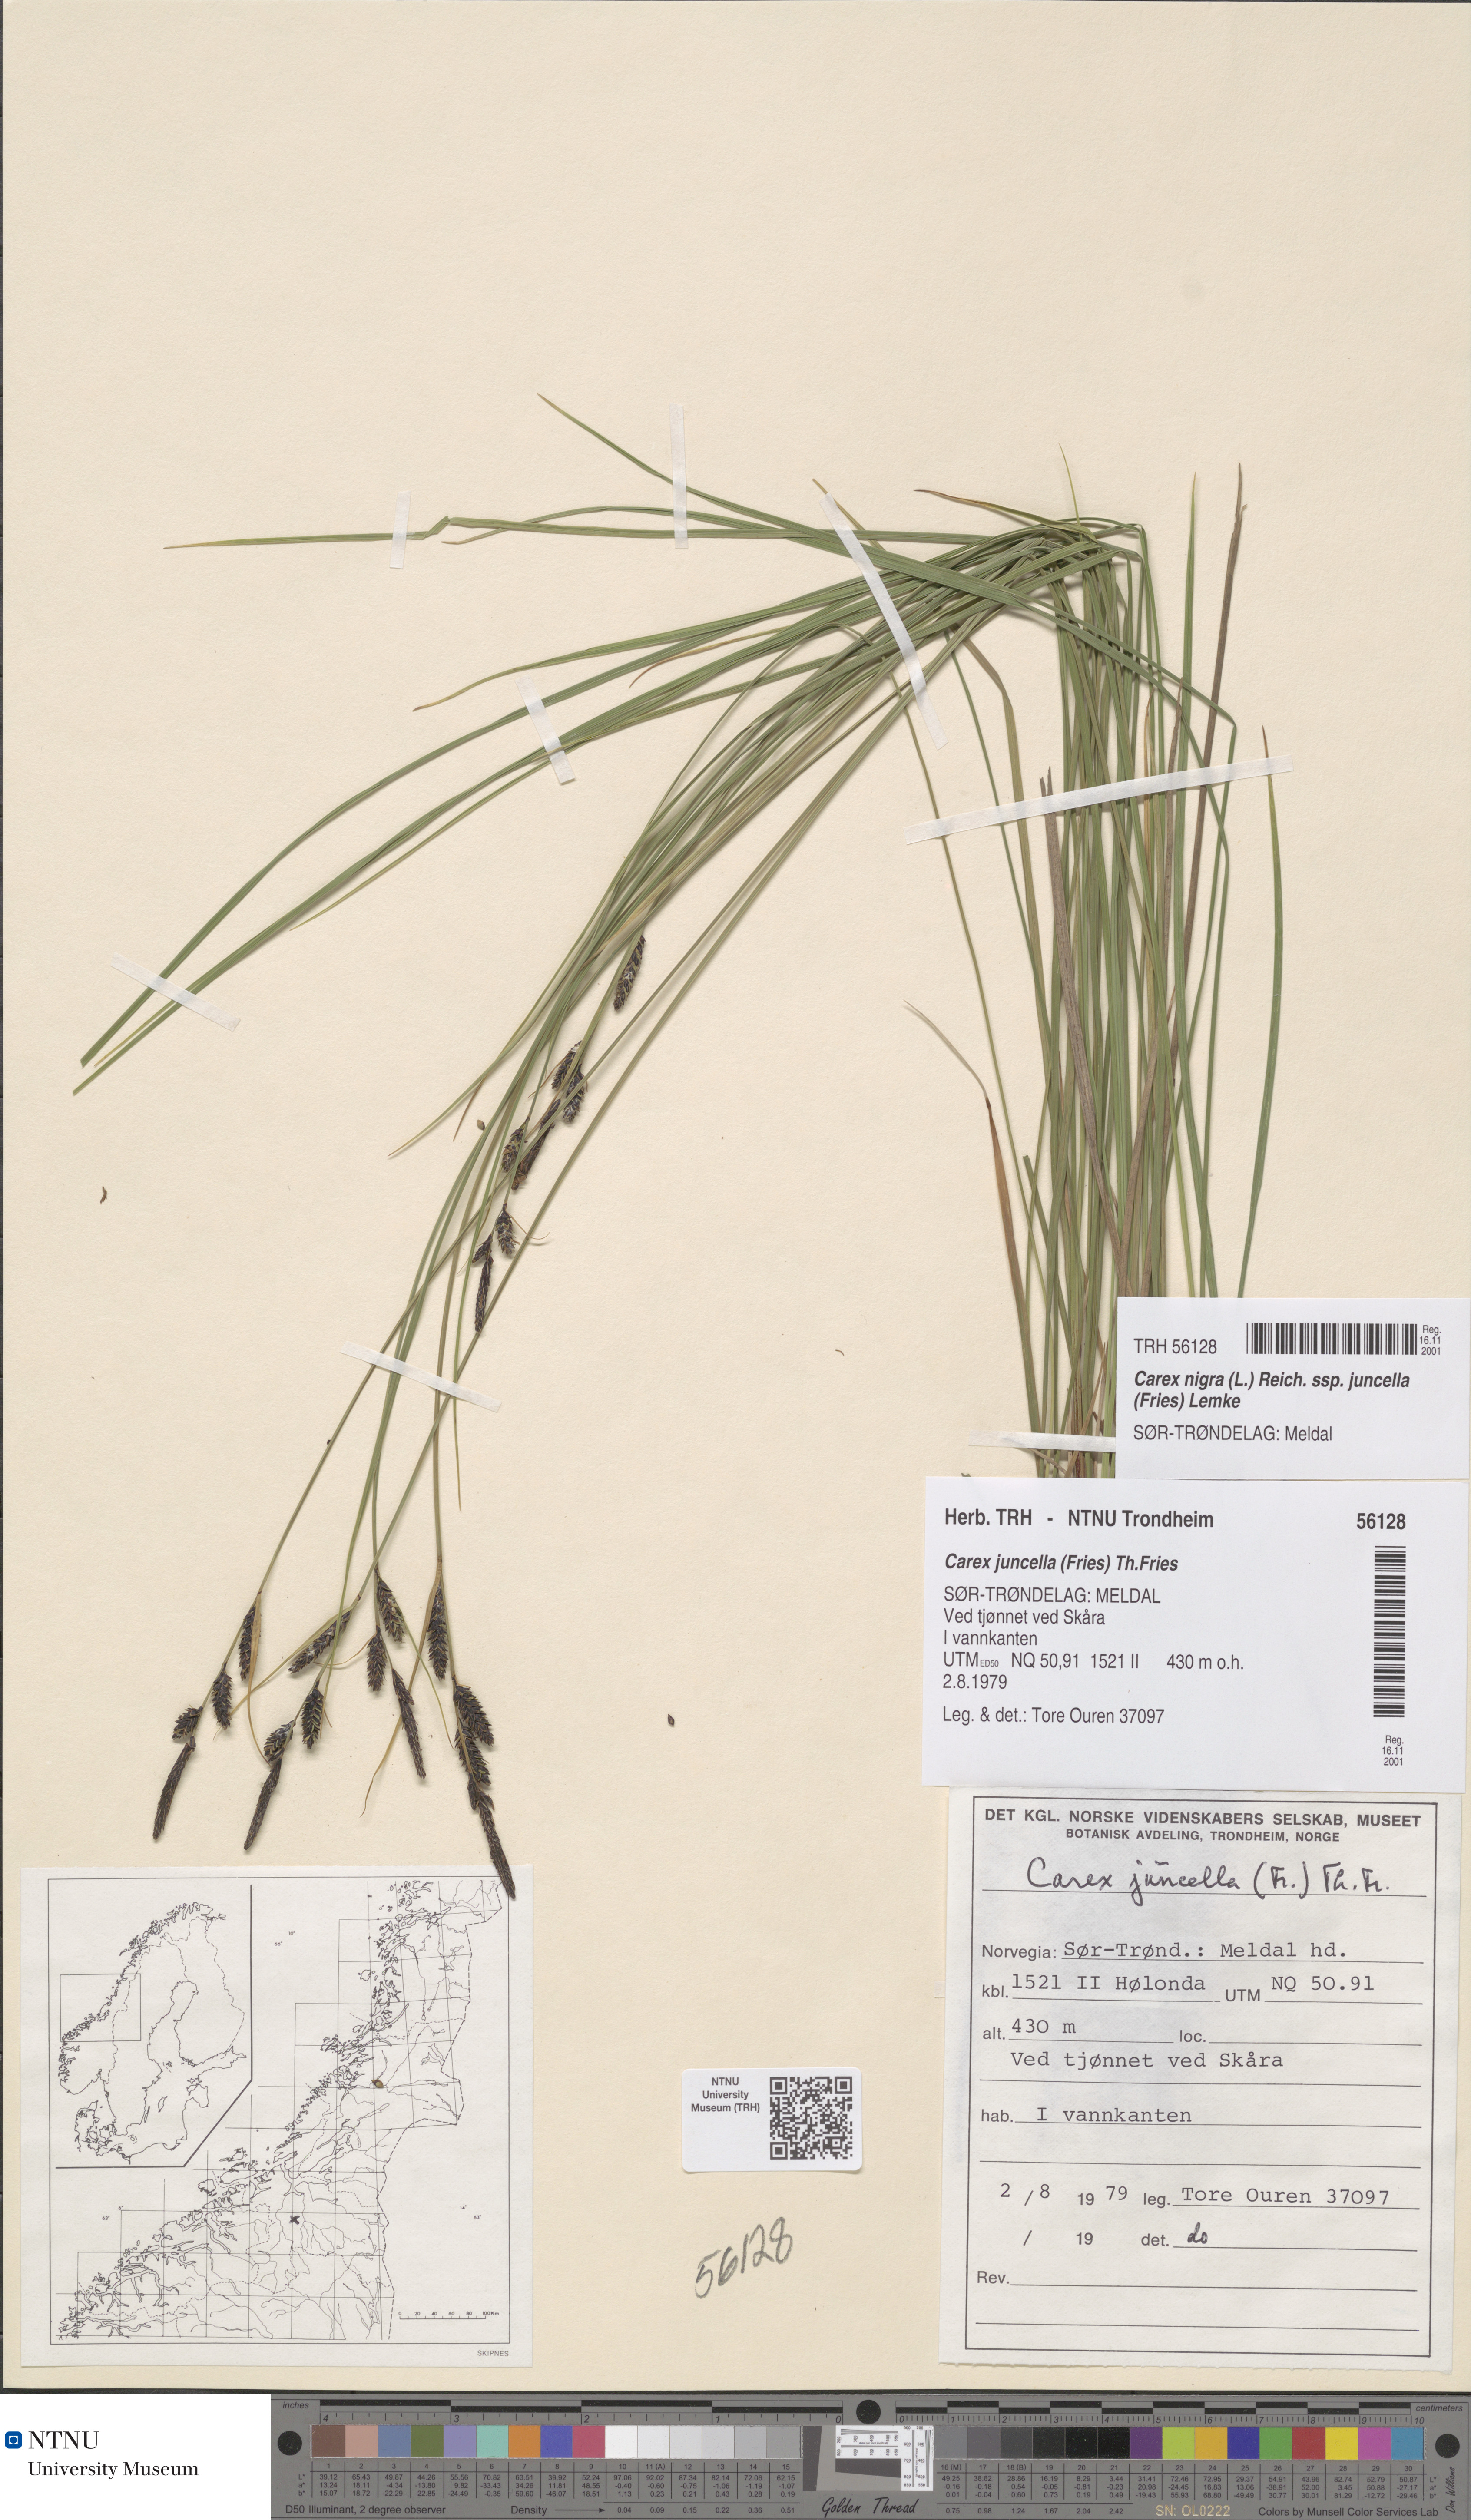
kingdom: Plantae
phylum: Tracheophyta
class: Liliopsida
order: Poales
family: Cyperaceae
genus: Carex
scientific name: Carex nigra
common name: Common sedge
